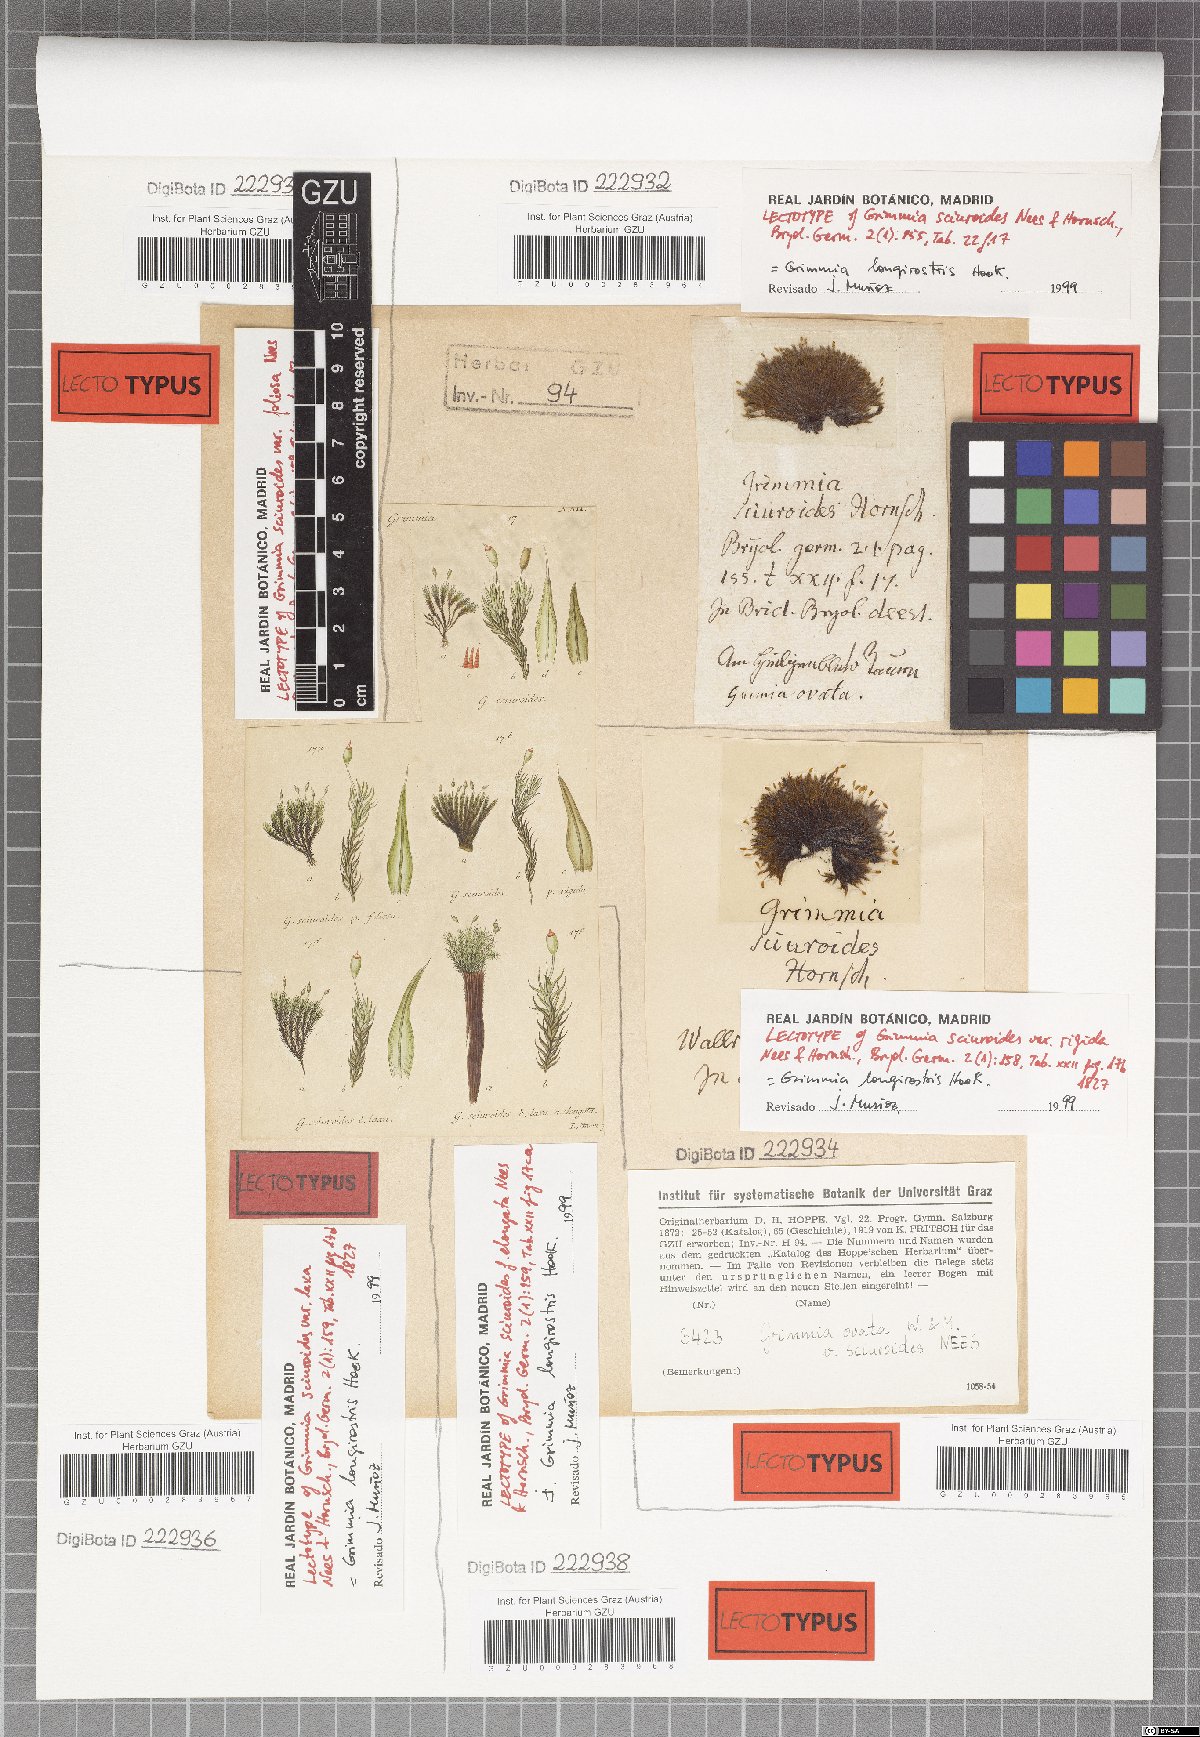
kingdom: Plantae
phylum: Bryophyta
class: Bryopsida
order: Grimmiales
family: Grimmiaceae
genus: Grimmia
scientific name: Grimmia longirostris
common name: Long-beaked grimmia
